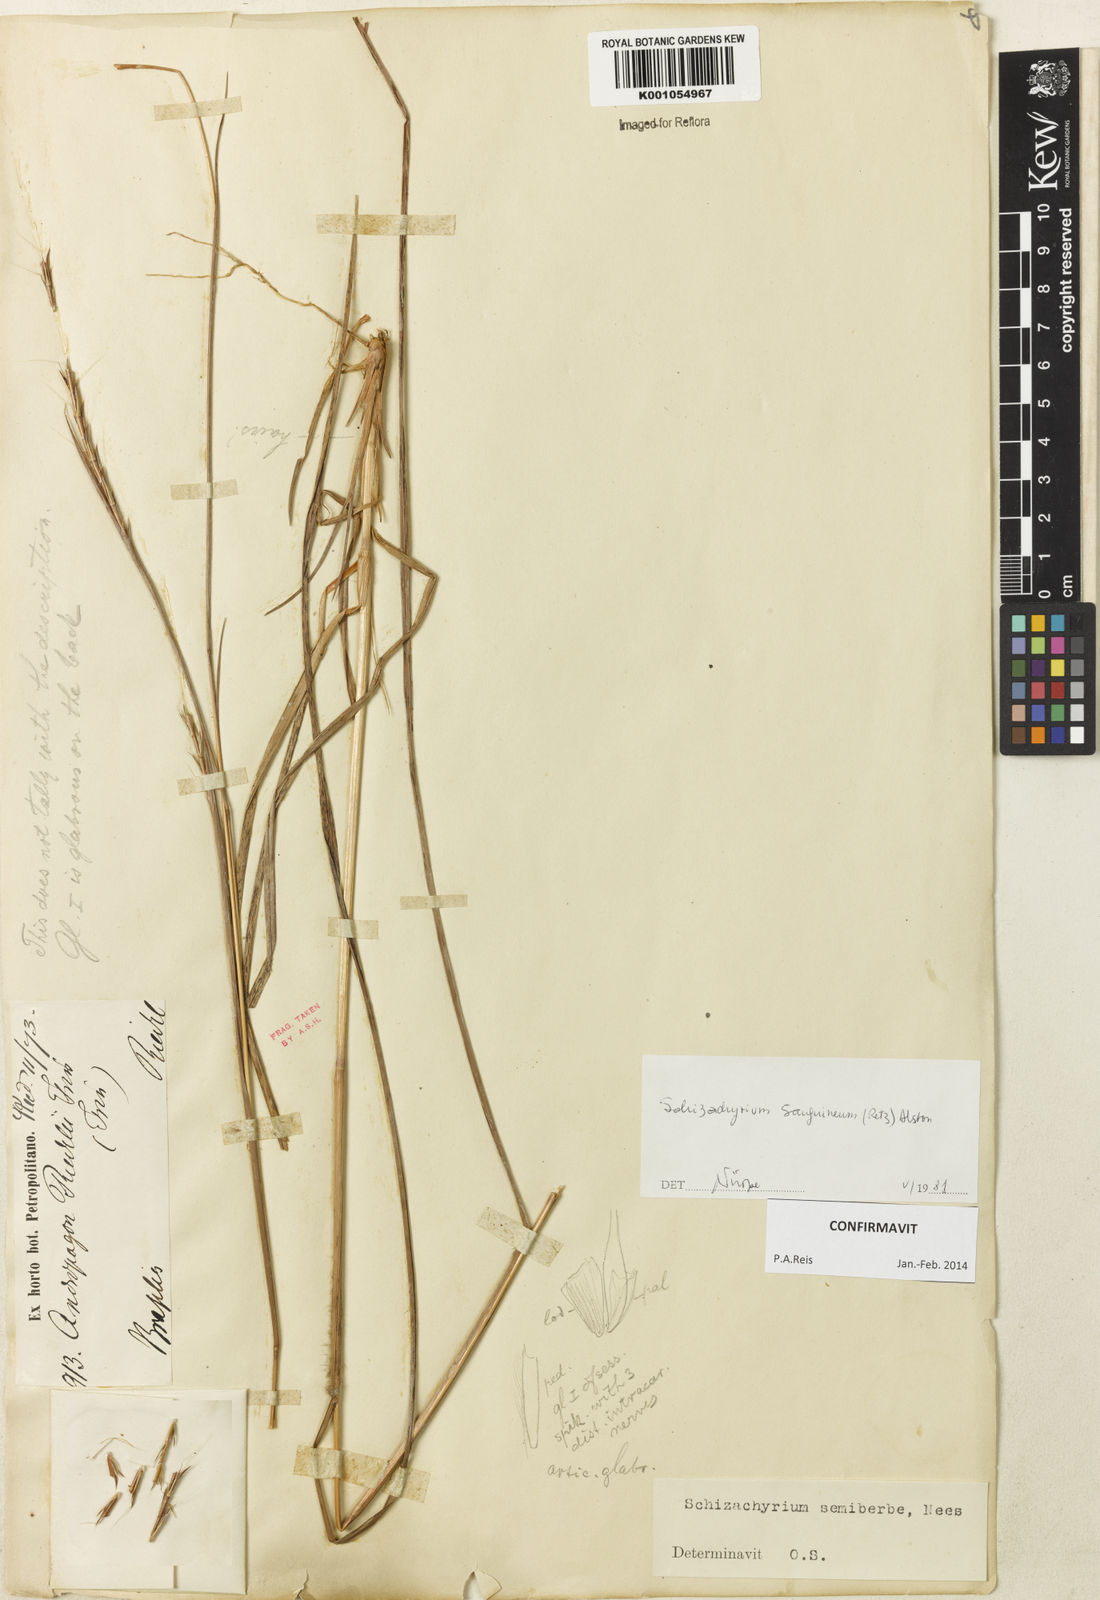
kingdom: Plantae
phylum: Tracheophyta
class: Liliopsida
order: Poales
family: Poaceae
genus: Schizachyrium
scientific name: Schizachyrium sanguineum
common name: Crimson bluestem
